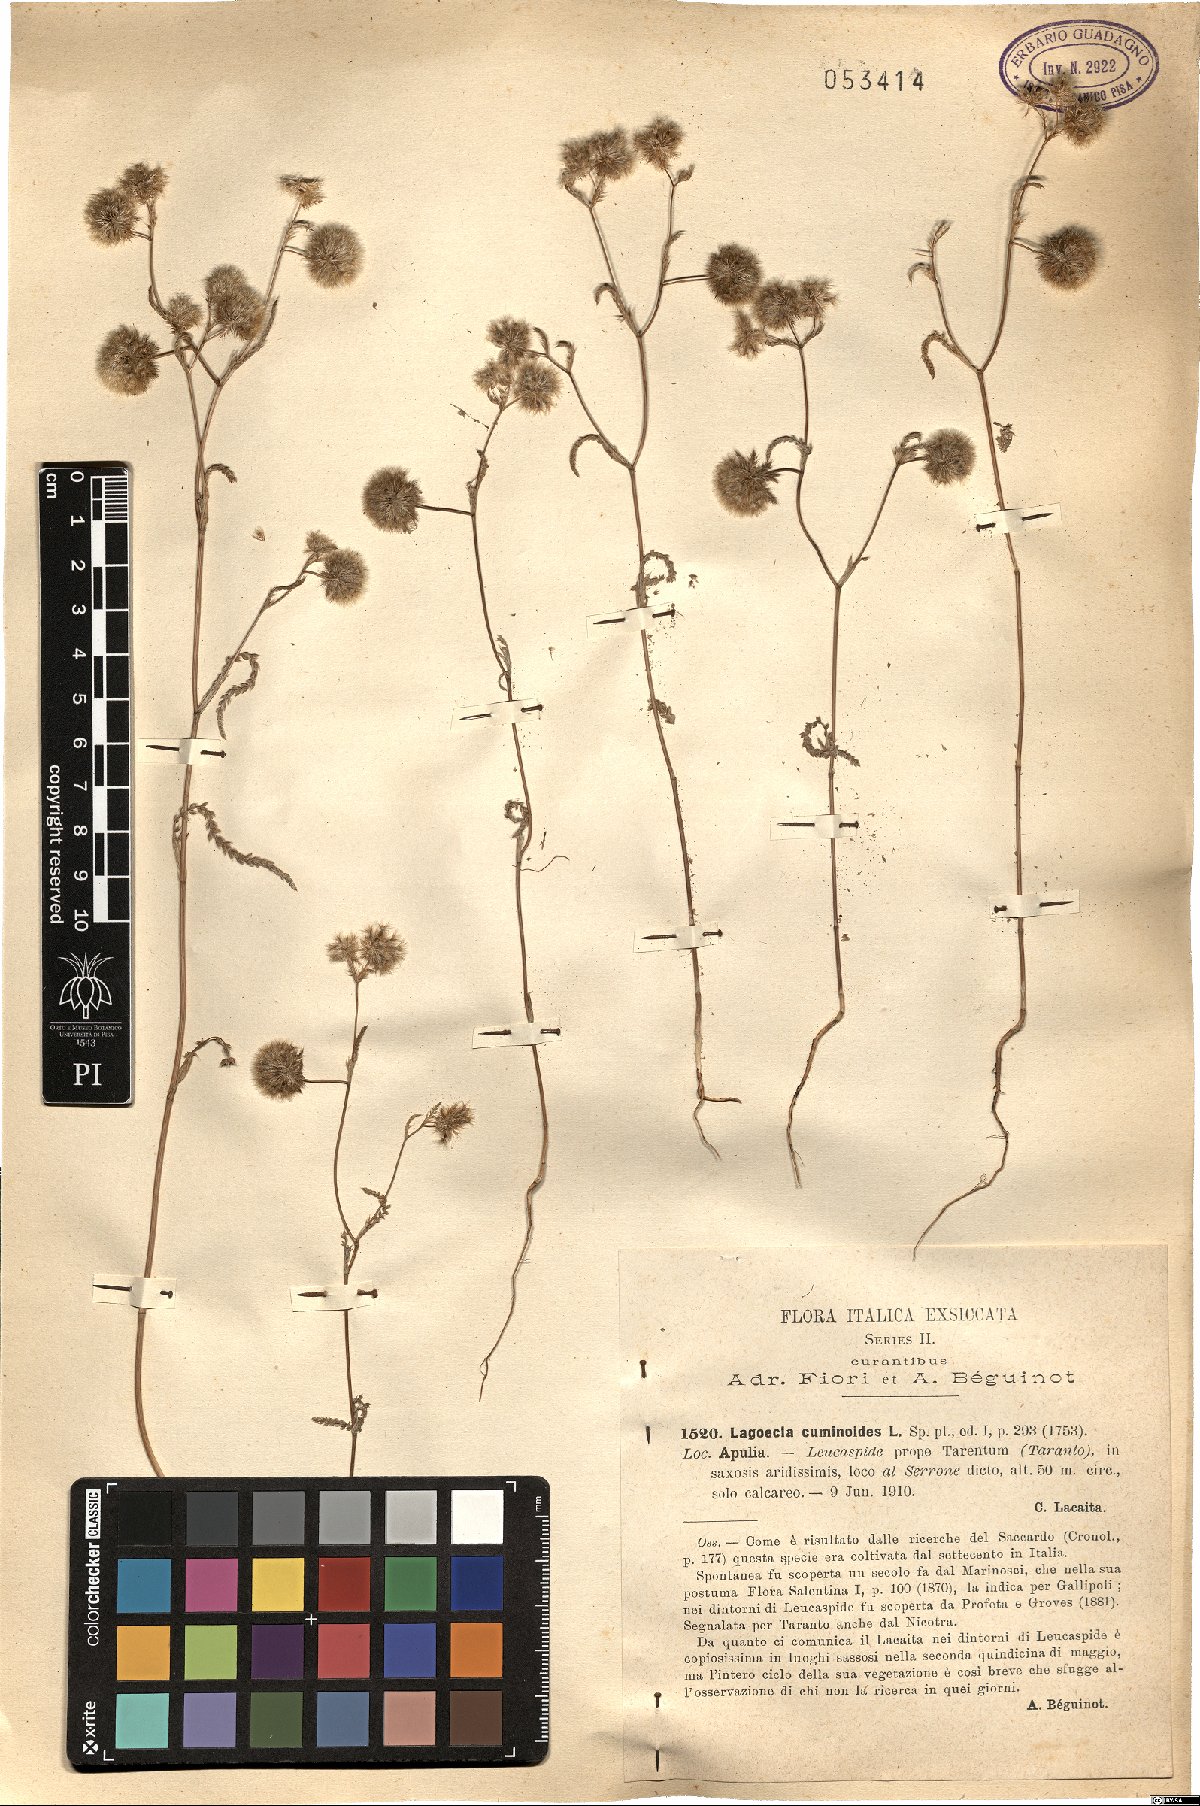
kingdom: Plantae
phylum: Tracheophyta
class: Magnoliopsida
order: Apiales
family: Apiaceae
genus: Lagoecia
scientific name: Lagoecia cuminoides
